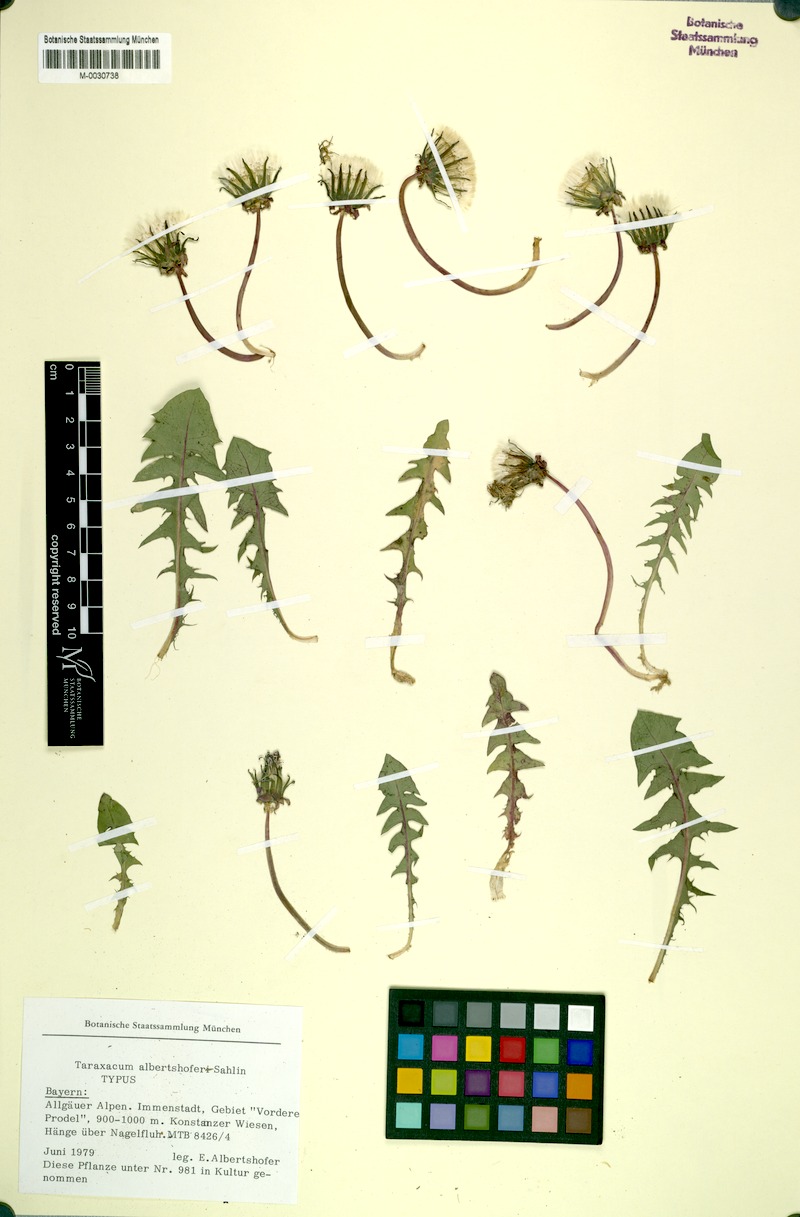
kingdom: Plantae
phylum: Tracheophyta
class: Magnoliopsida
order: Asterales
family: Asteraceae
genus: Taraxacum
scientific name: Taraxacum albertshoferi
